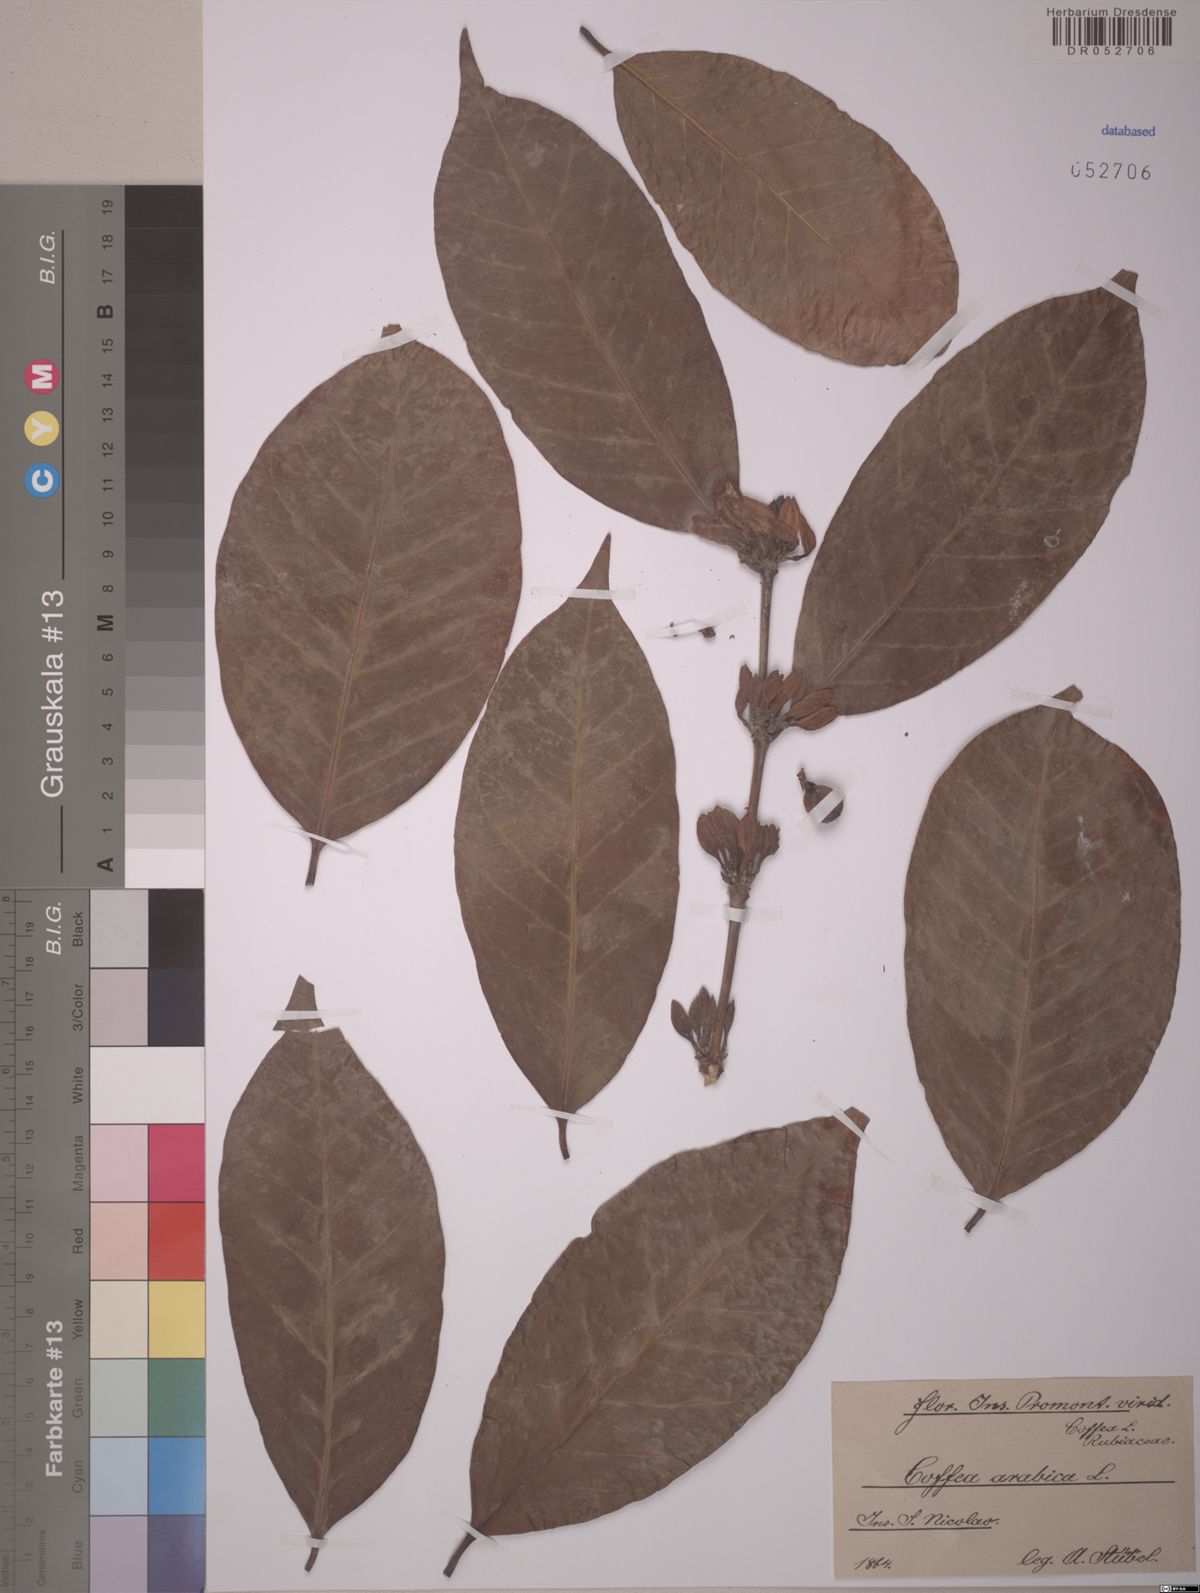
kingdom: Plantae
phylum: Tracheophyta
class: Magnoliopsida
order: Gentianales
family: Rubiaceae
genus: Coffea
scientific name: Coffea arabica
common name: Coffee
